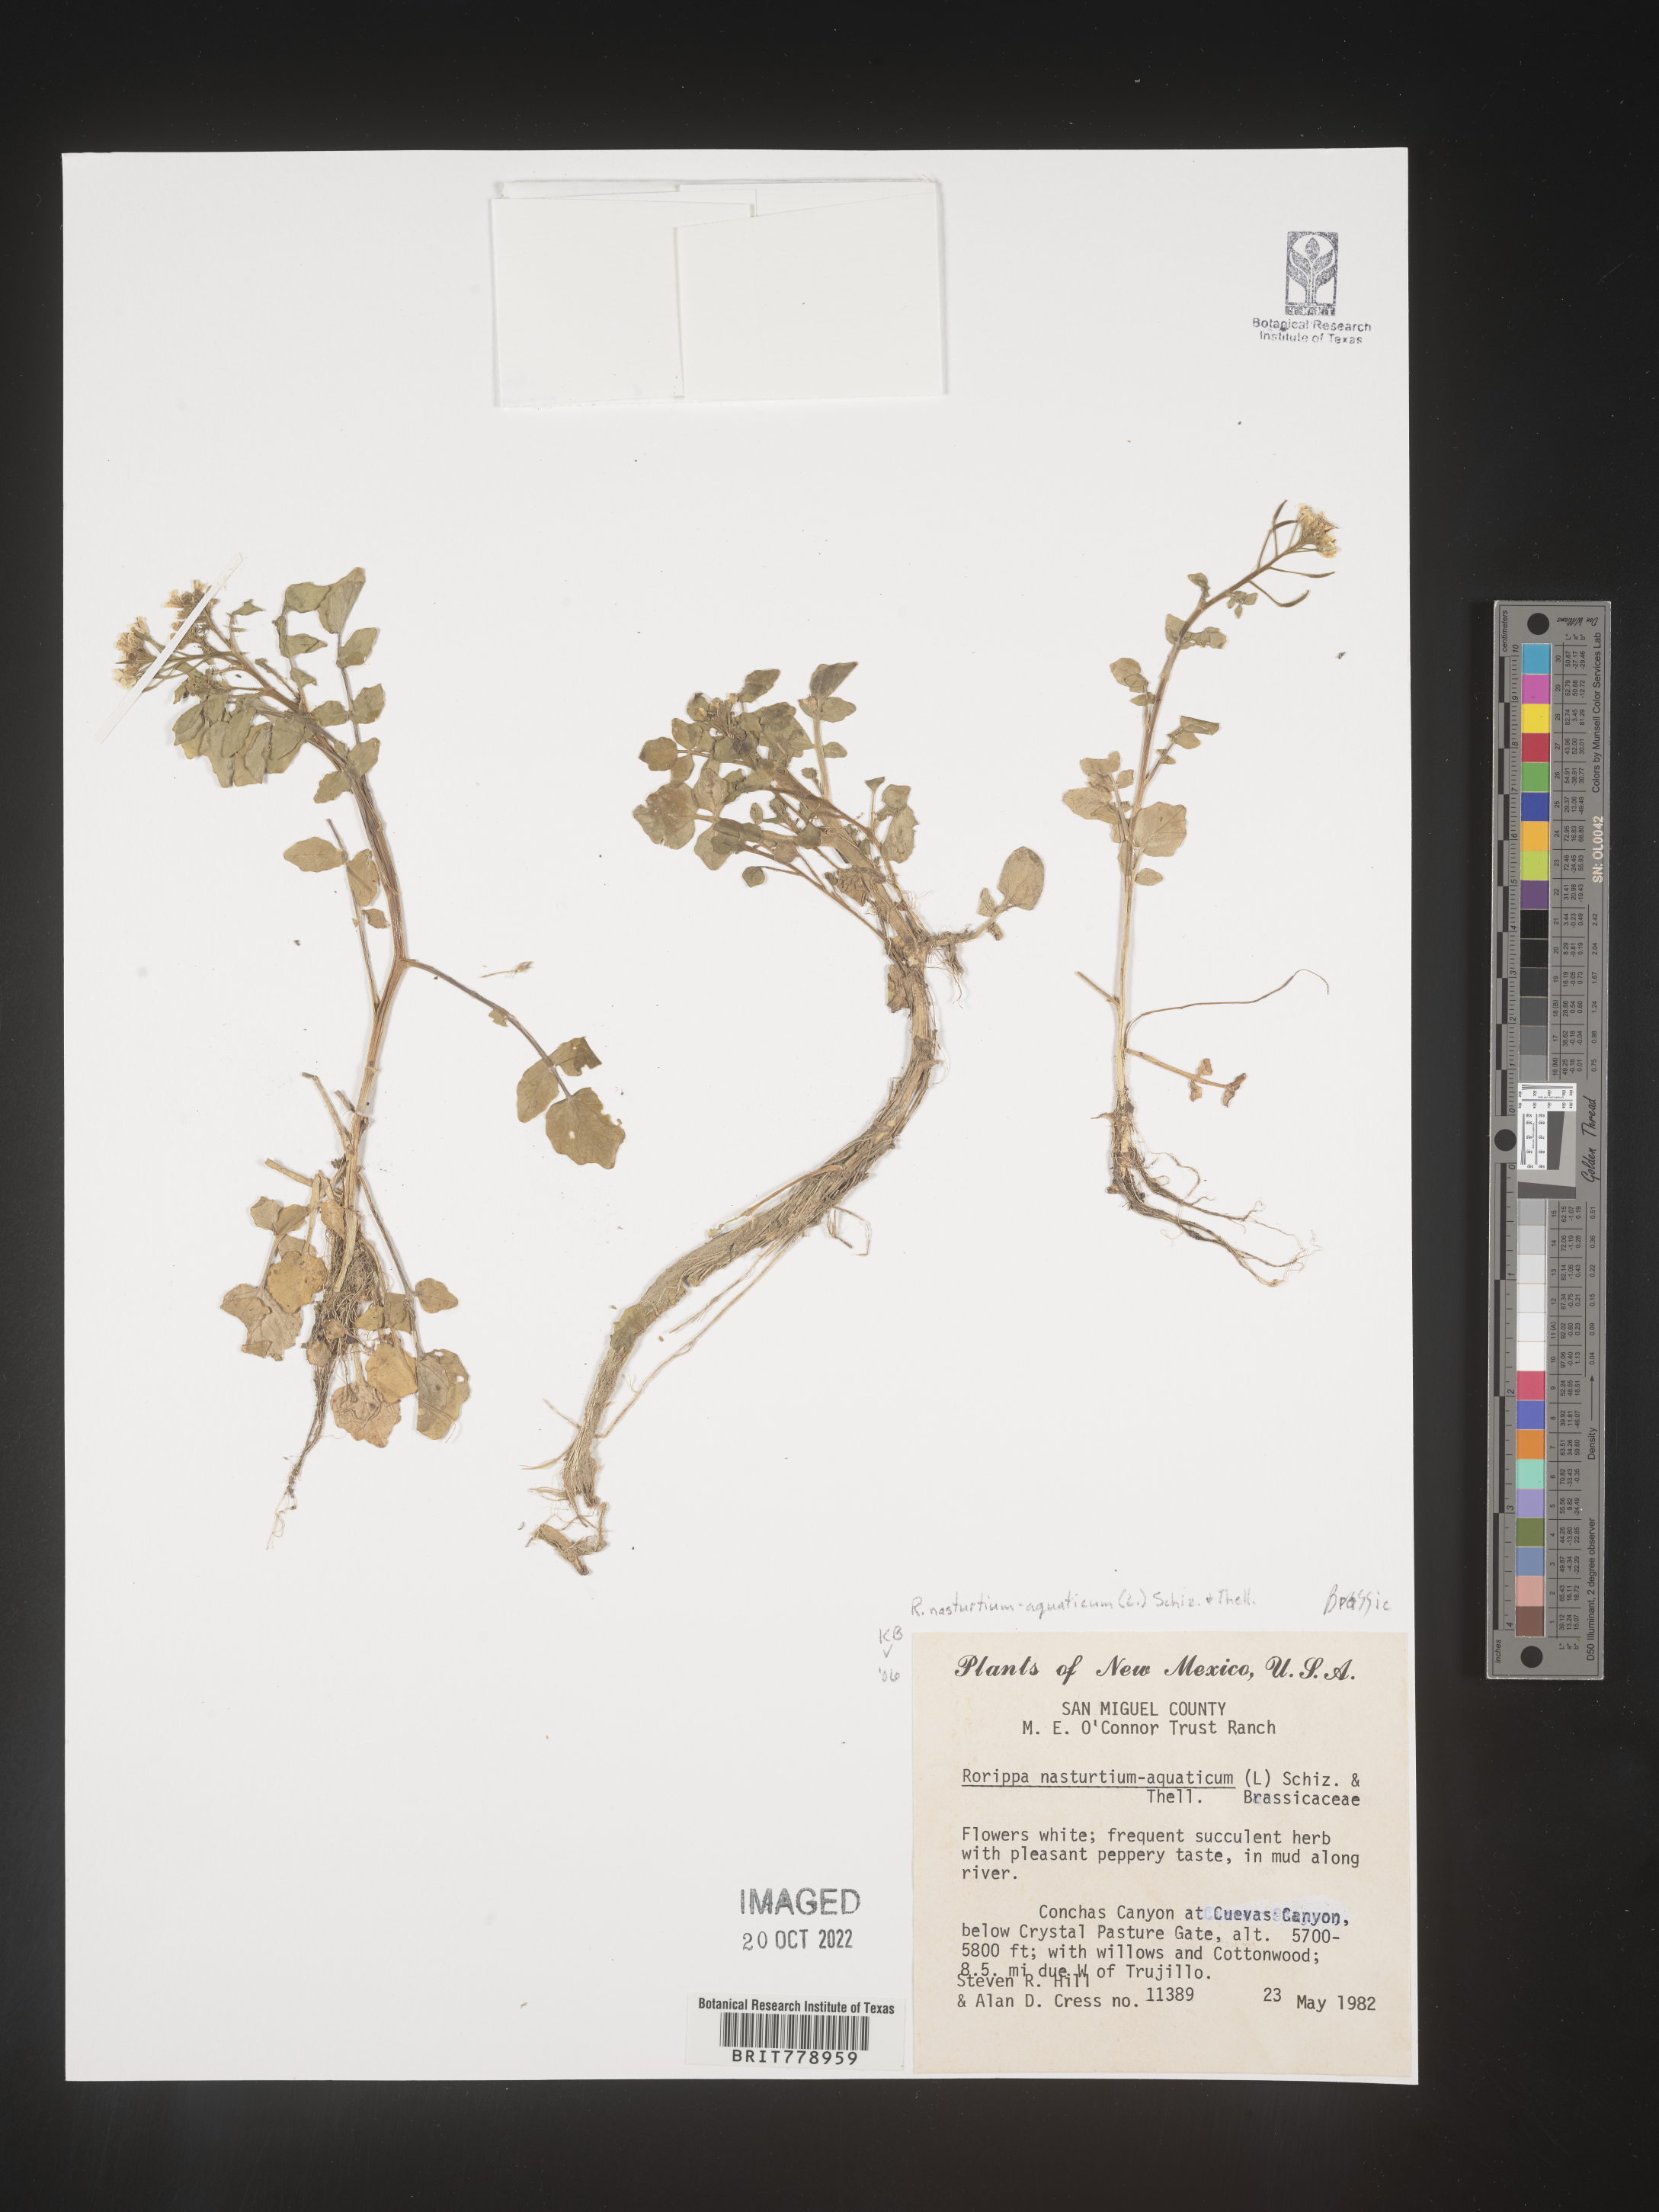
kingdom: Plantae
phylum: Tracheophyta
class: Magnoliopsida
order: Brassicales
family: Brassicaceae
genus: Nasturtium
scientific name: Nasturtium officinale
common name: Watercress
